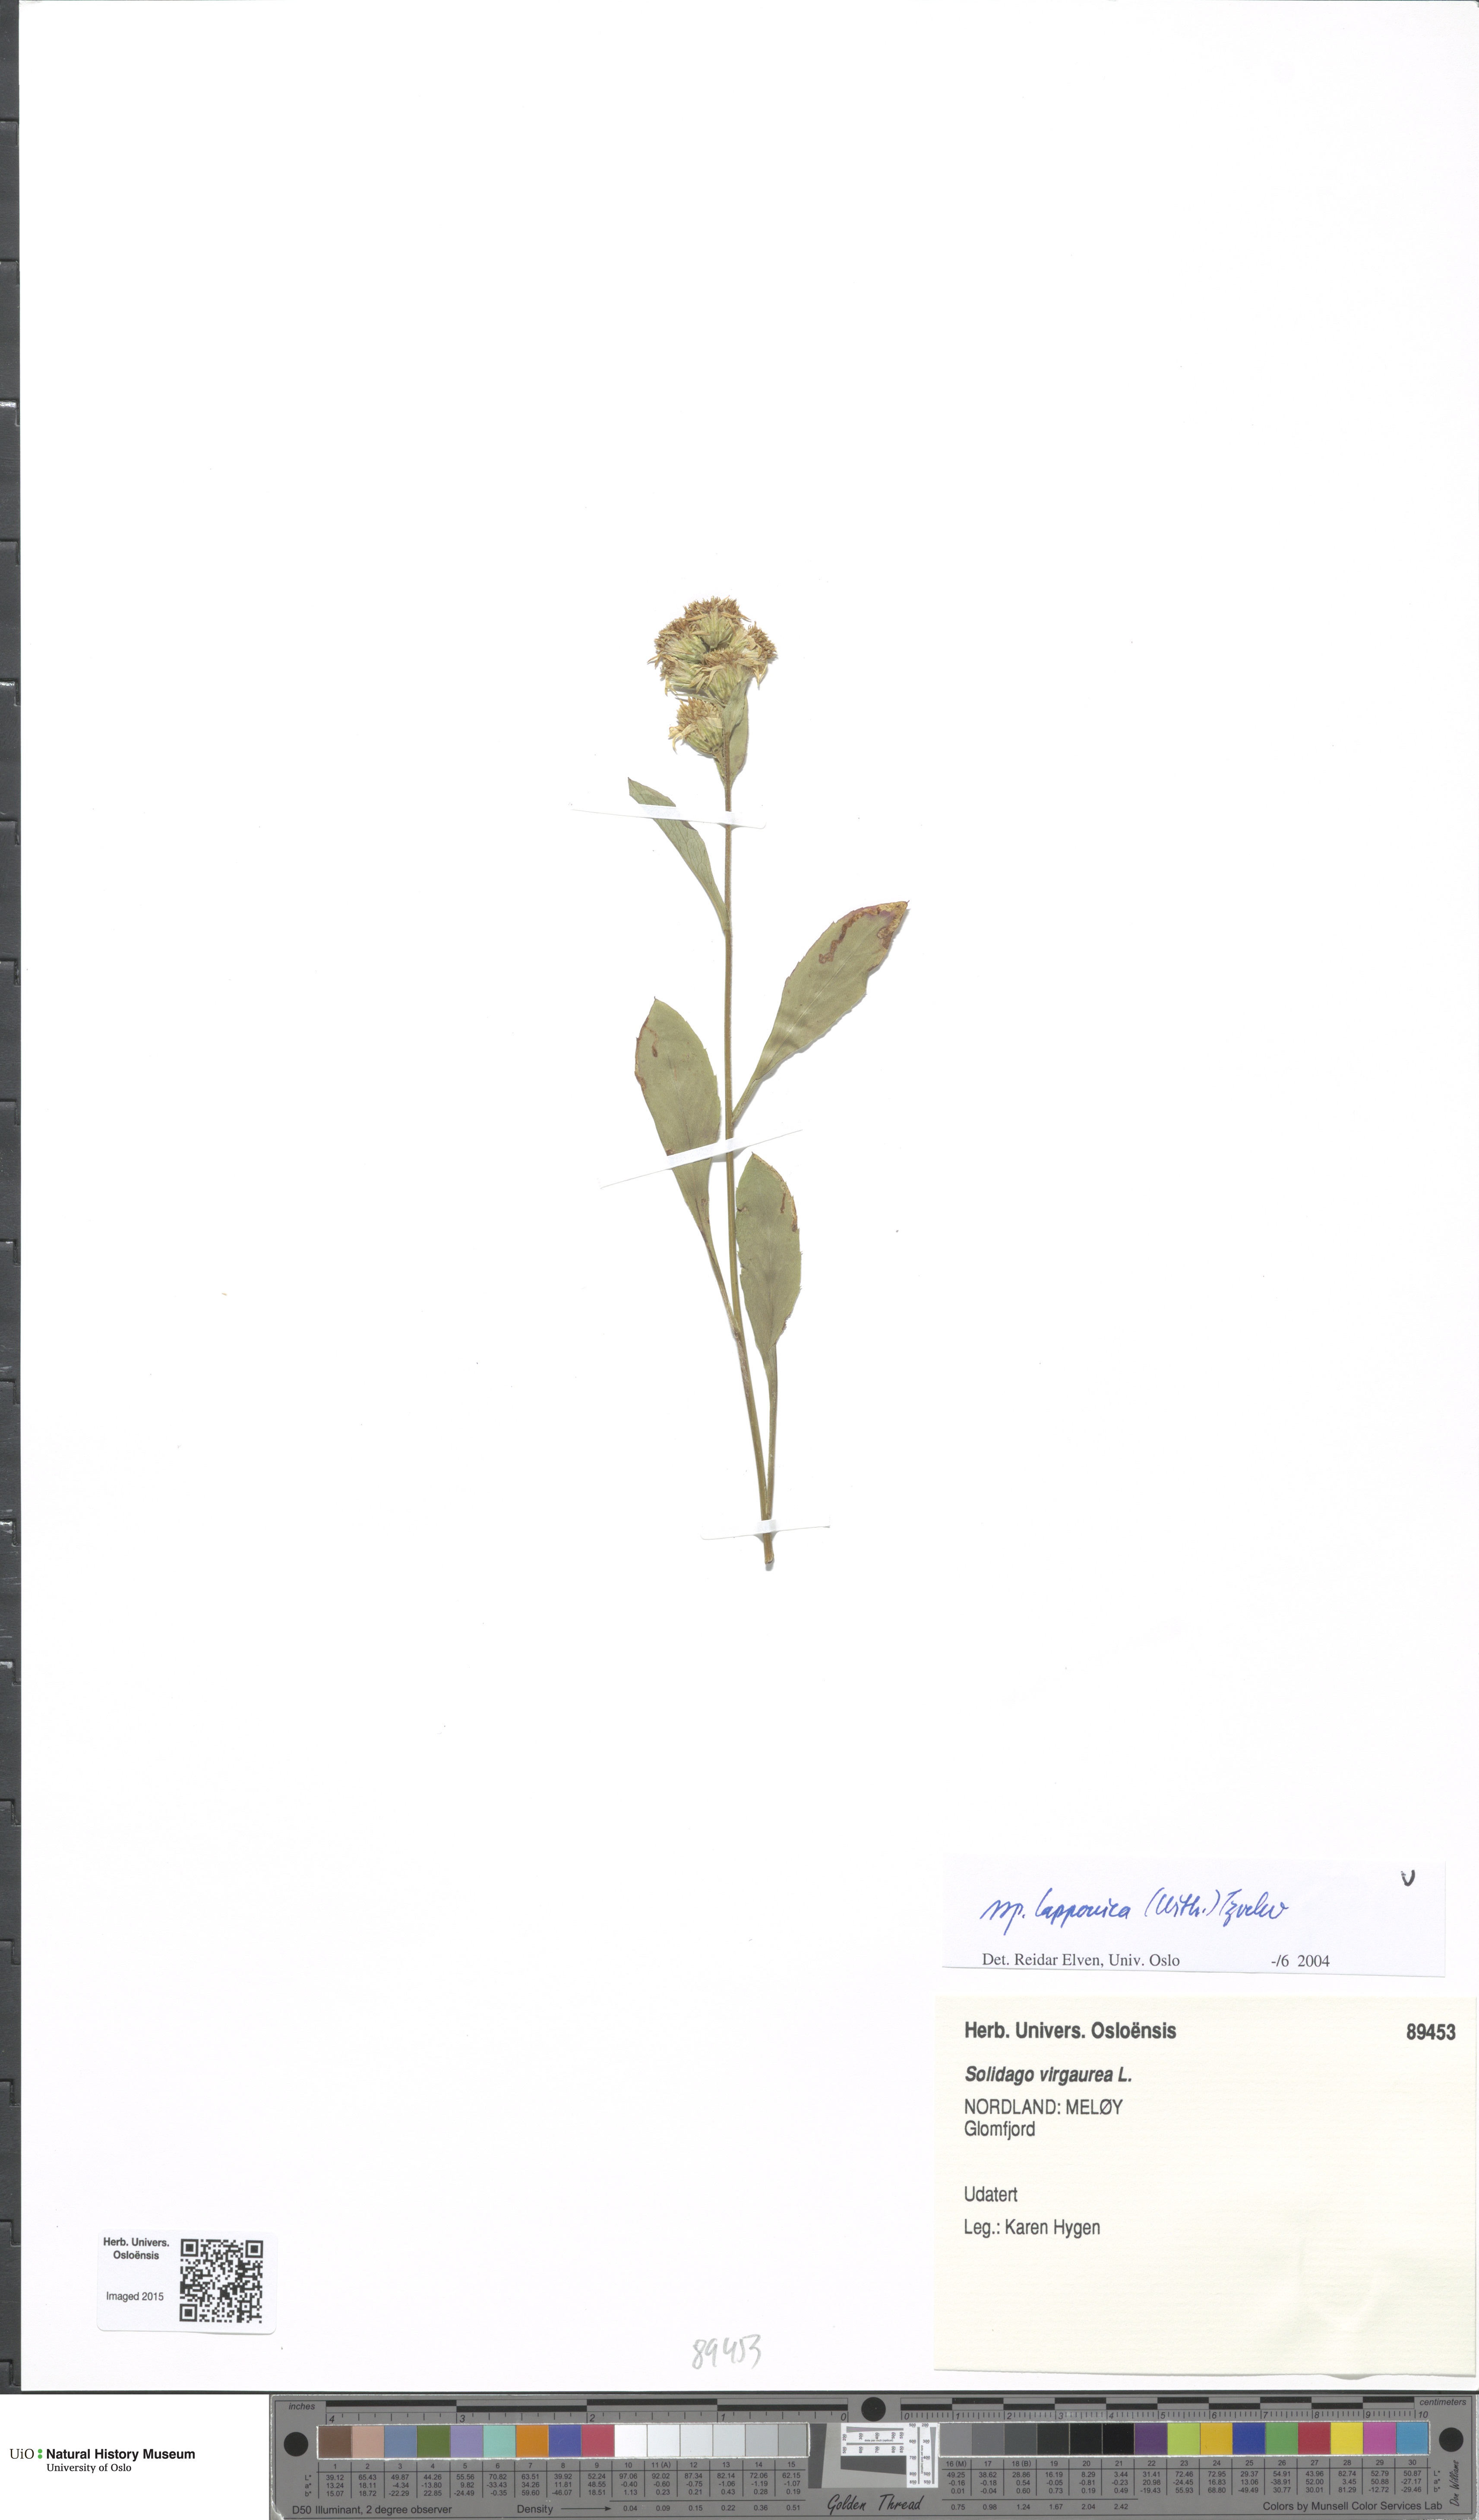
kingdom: Plantae
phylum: Tracheophyta
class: Magnoliopsida
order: Asterales
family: Asteraceae
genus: Solidago
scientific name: Solidago virgaurea
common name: Goldenrod
